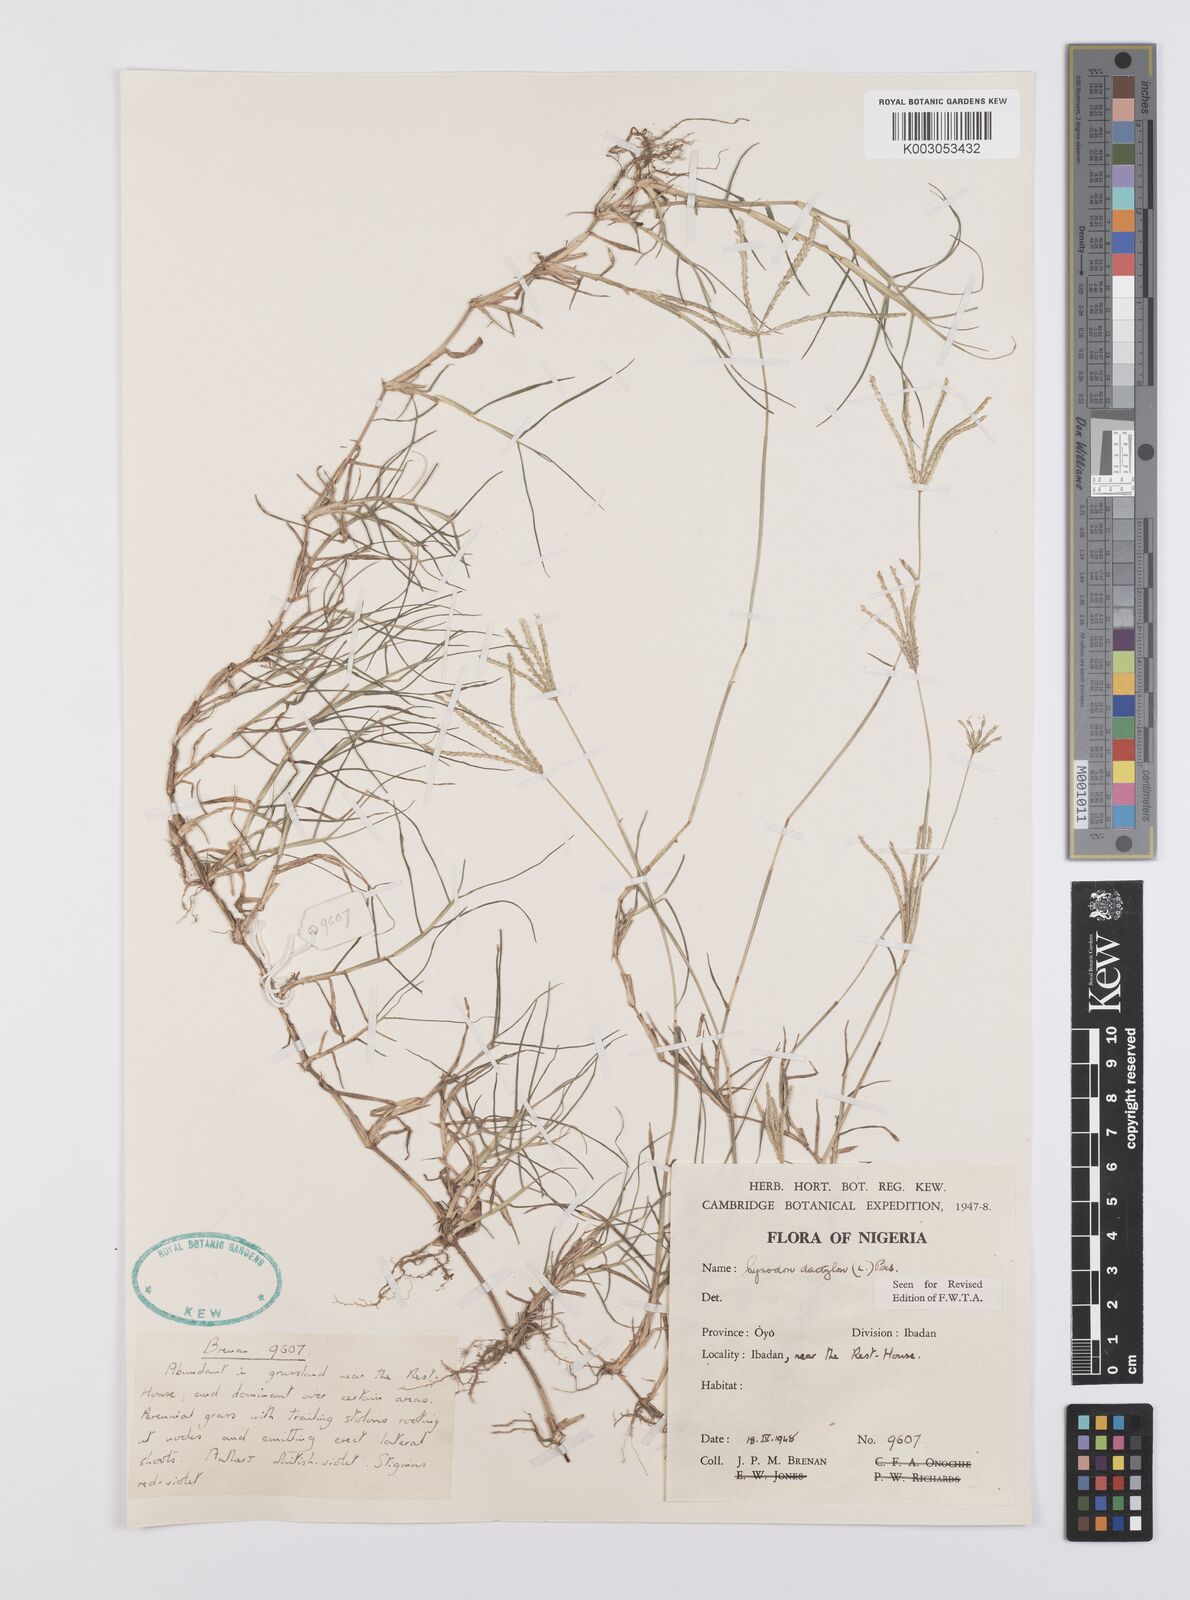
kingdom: Plantae
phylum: Tracheophyta
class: Liliopsida
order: Poales
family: Poaceae
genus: Cynodon
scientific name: Cynodon dactylon
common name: Bermuda grass
